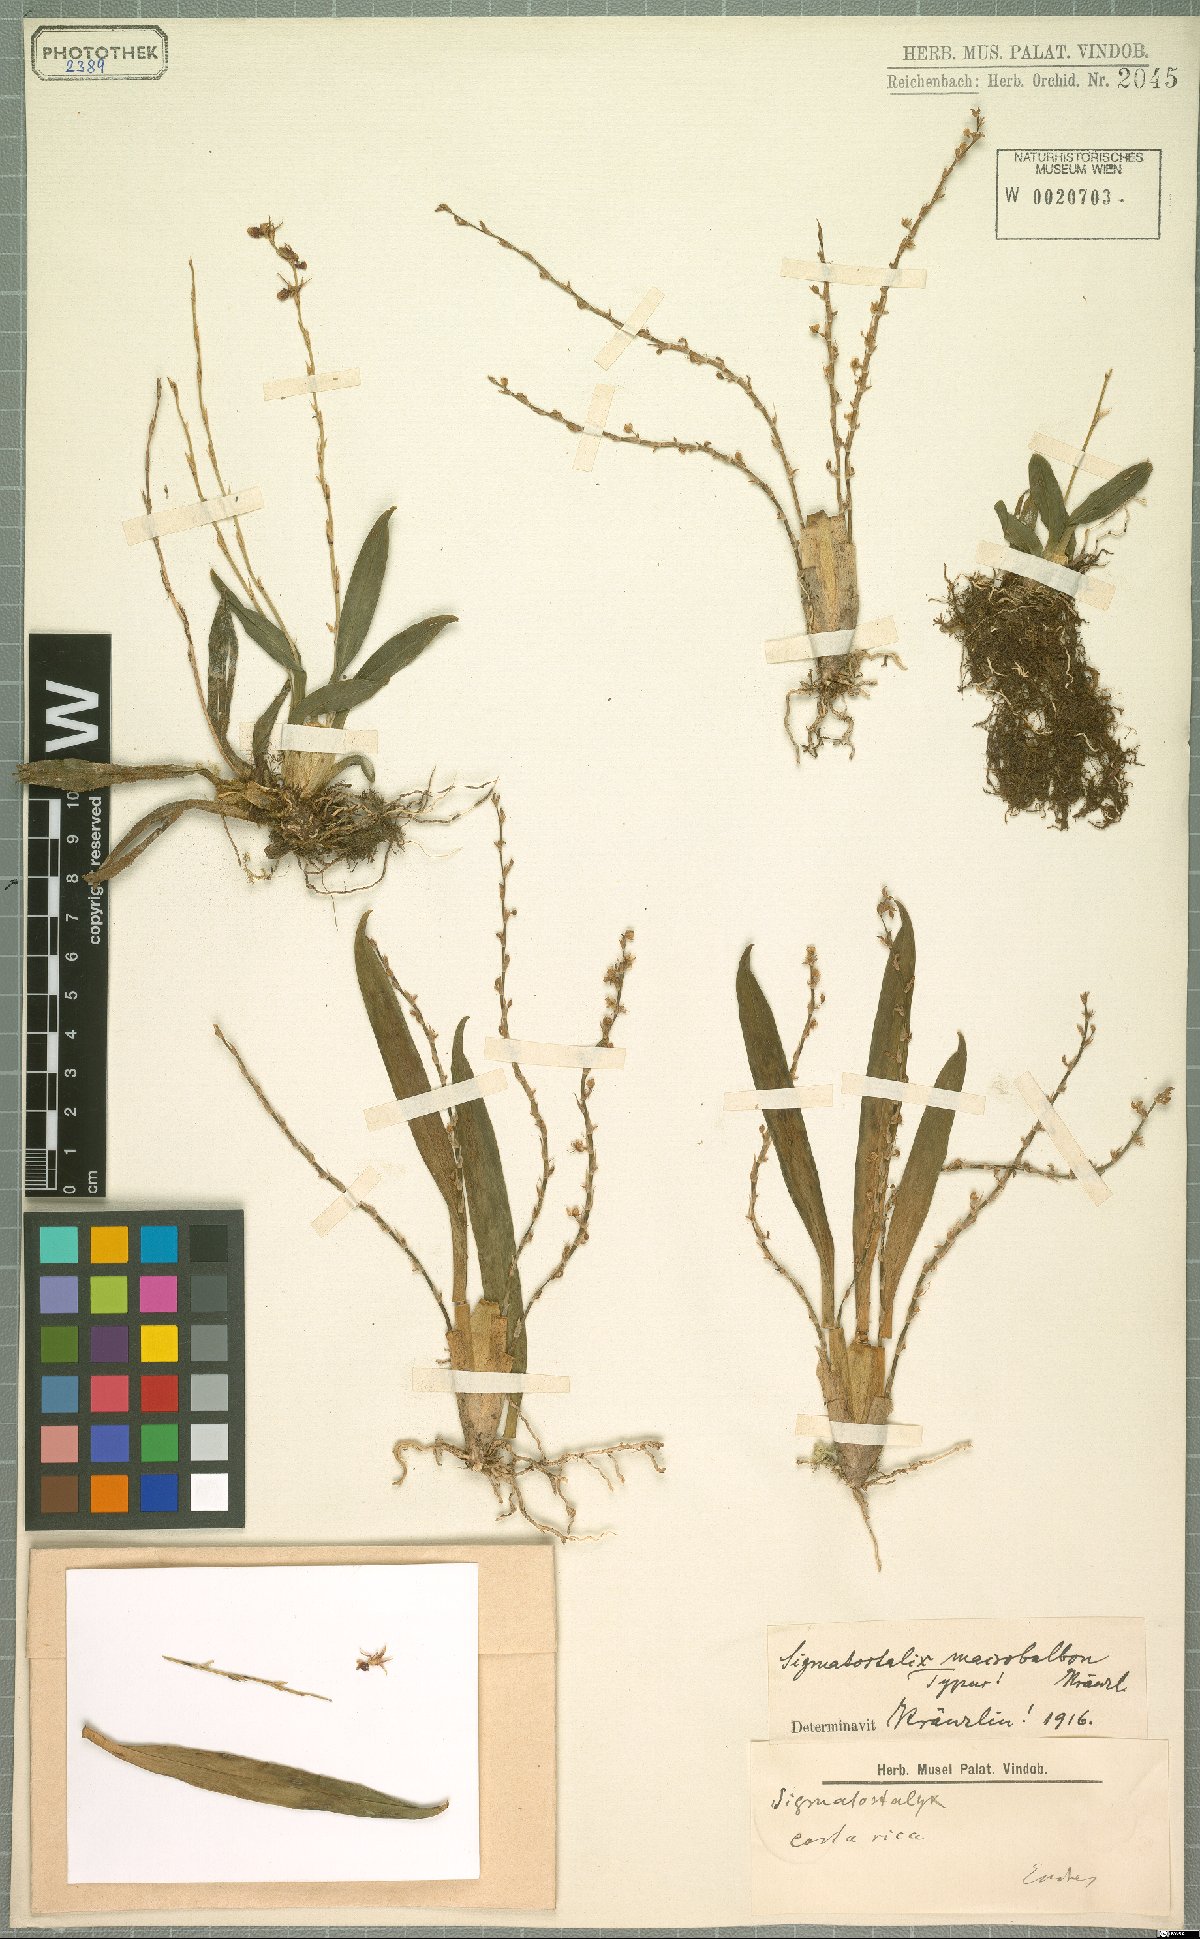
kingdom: Plantae
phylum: Tracheophyta
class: Liliopsida
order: Asparagales
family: Orchidaceae
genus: Oncidium
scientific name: Oncidium macrobulbon
